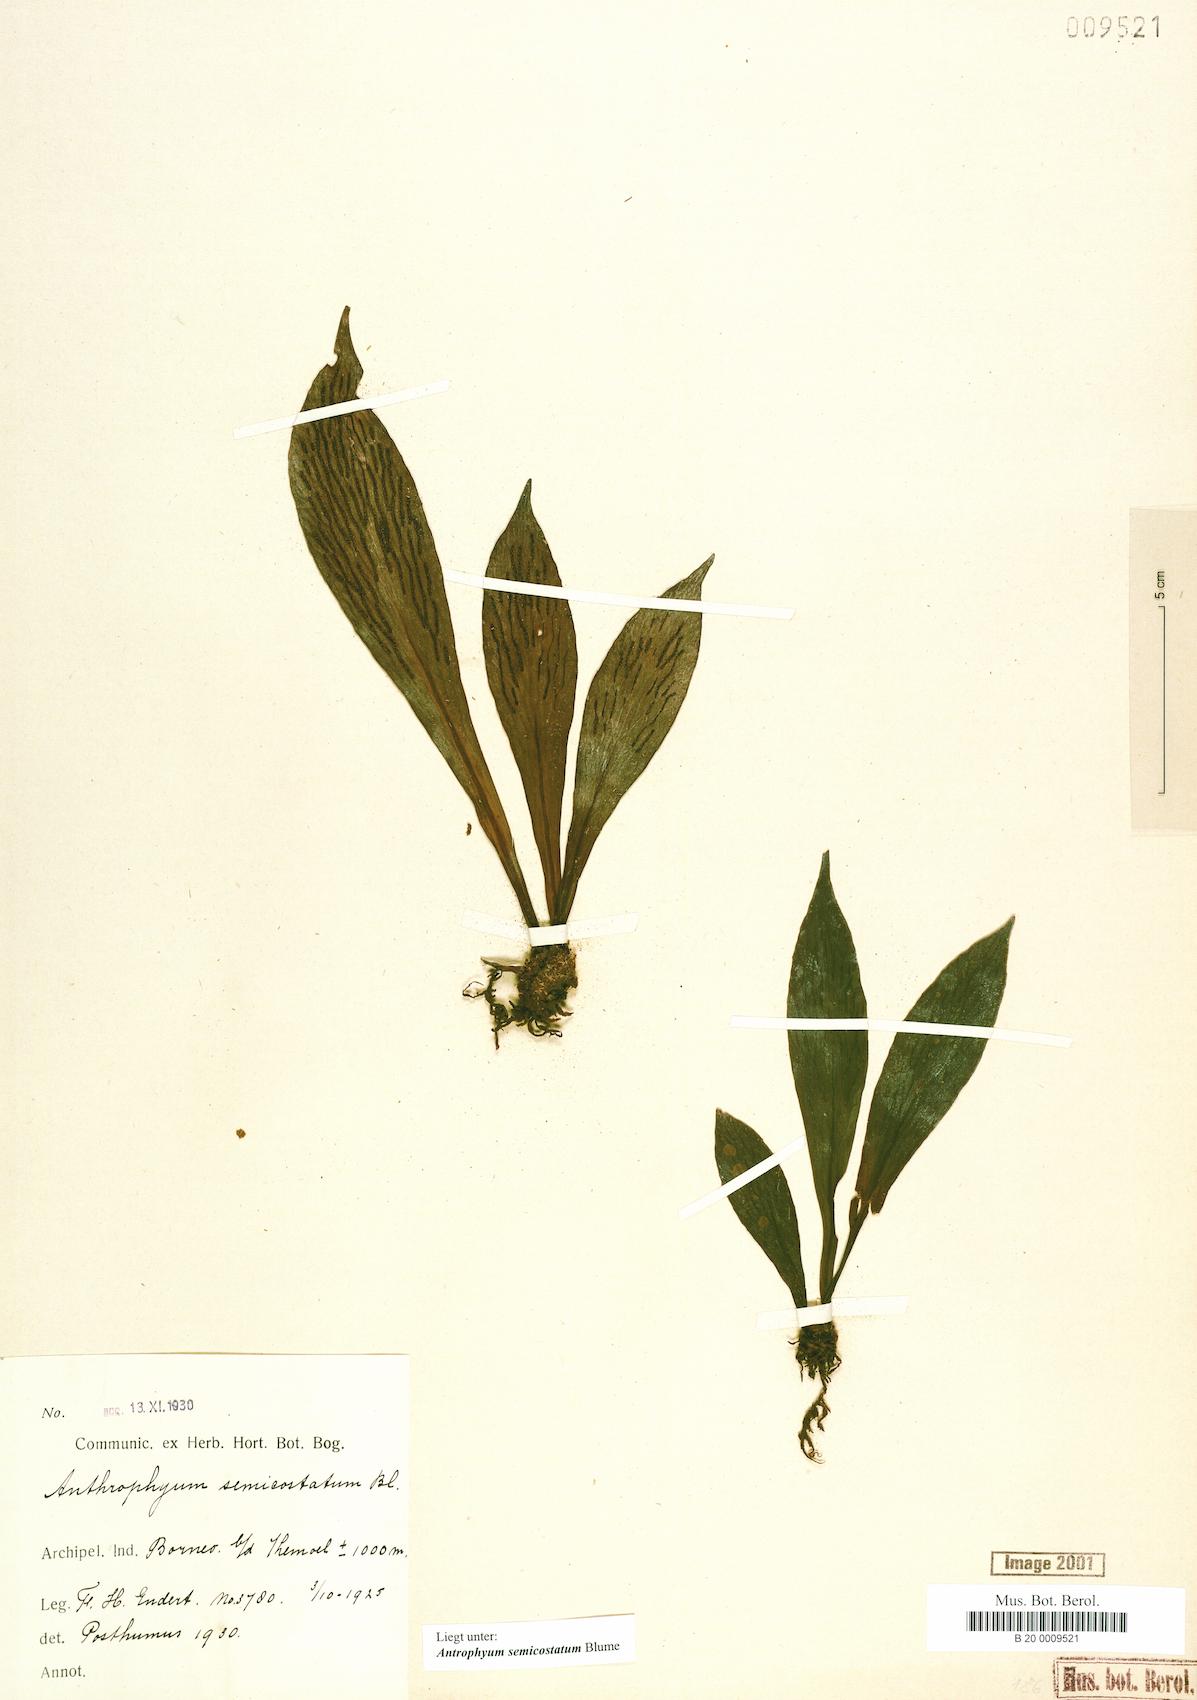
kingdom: Plantae
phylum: Tracheophyta
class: Polypodiopsida
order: Polypodiales
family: Pteridaceae
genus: Antrophyum
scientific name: Antrophyum semicostatum
